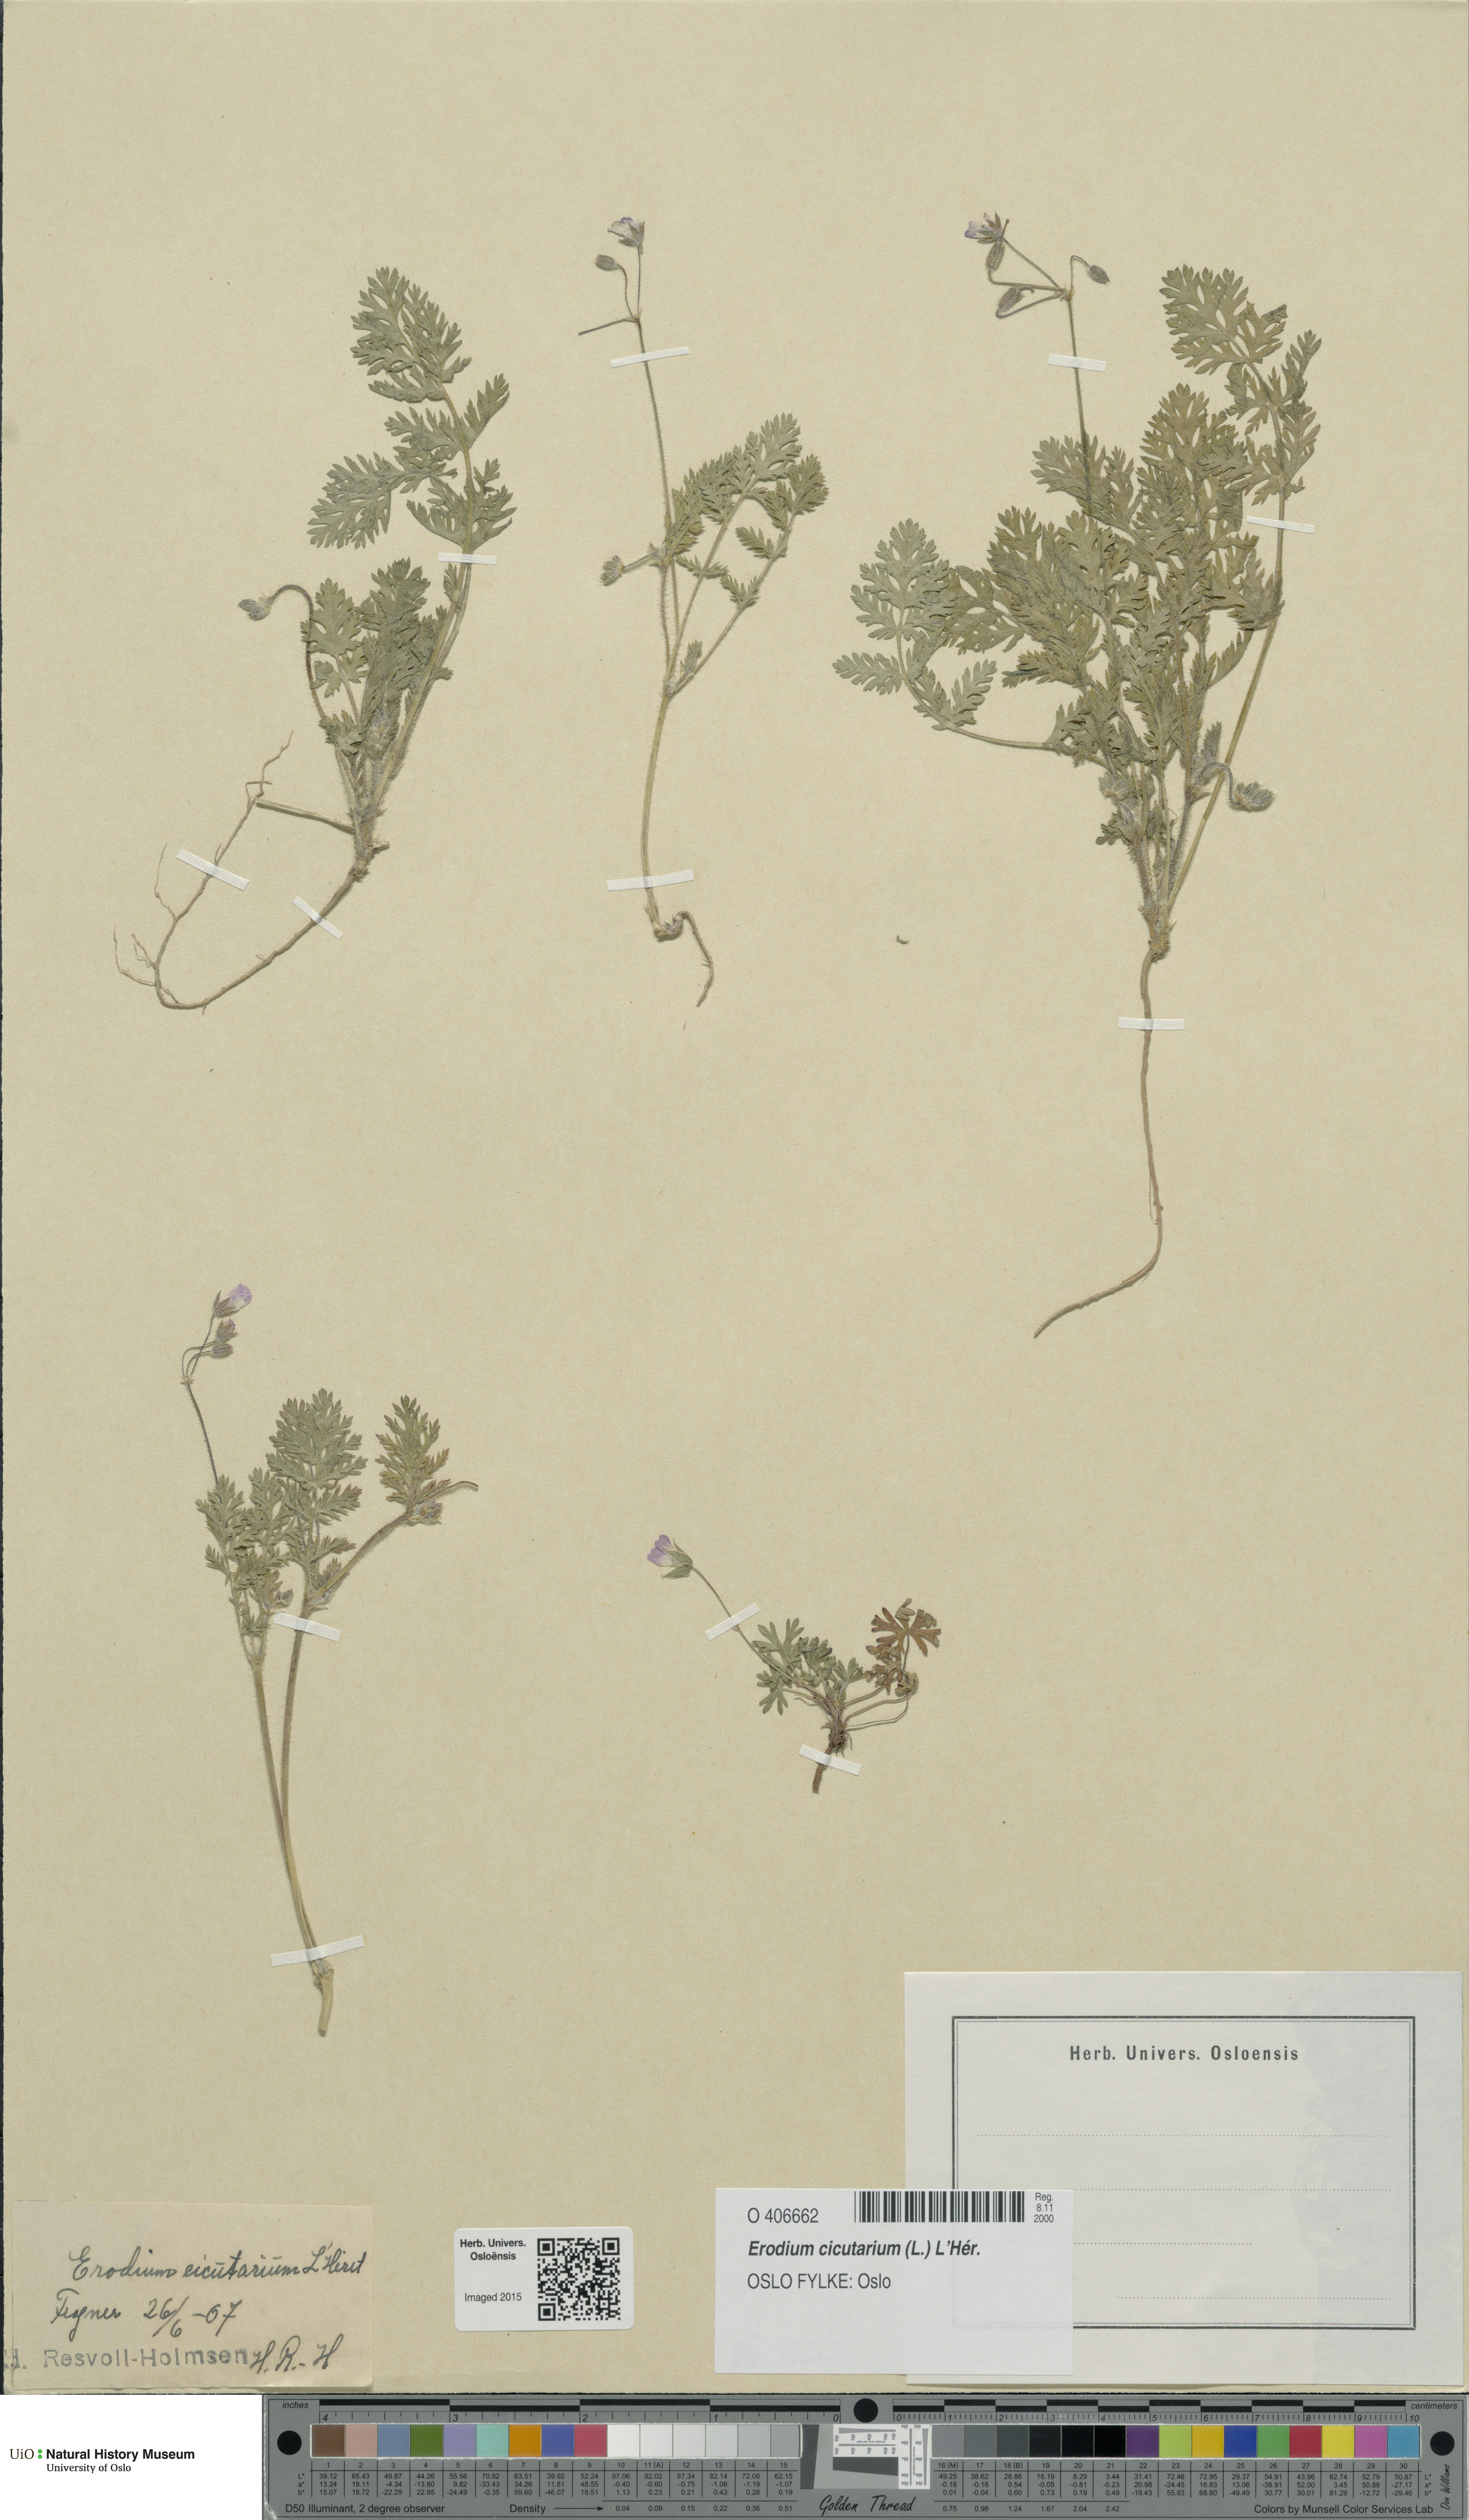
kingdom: Plantae
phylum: Tracheophyta
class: Magnoliopsida
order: Geraniales
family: Geraniaceae
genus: Erodium
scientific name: Erodium cicutarium
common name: Common stork's-bill
